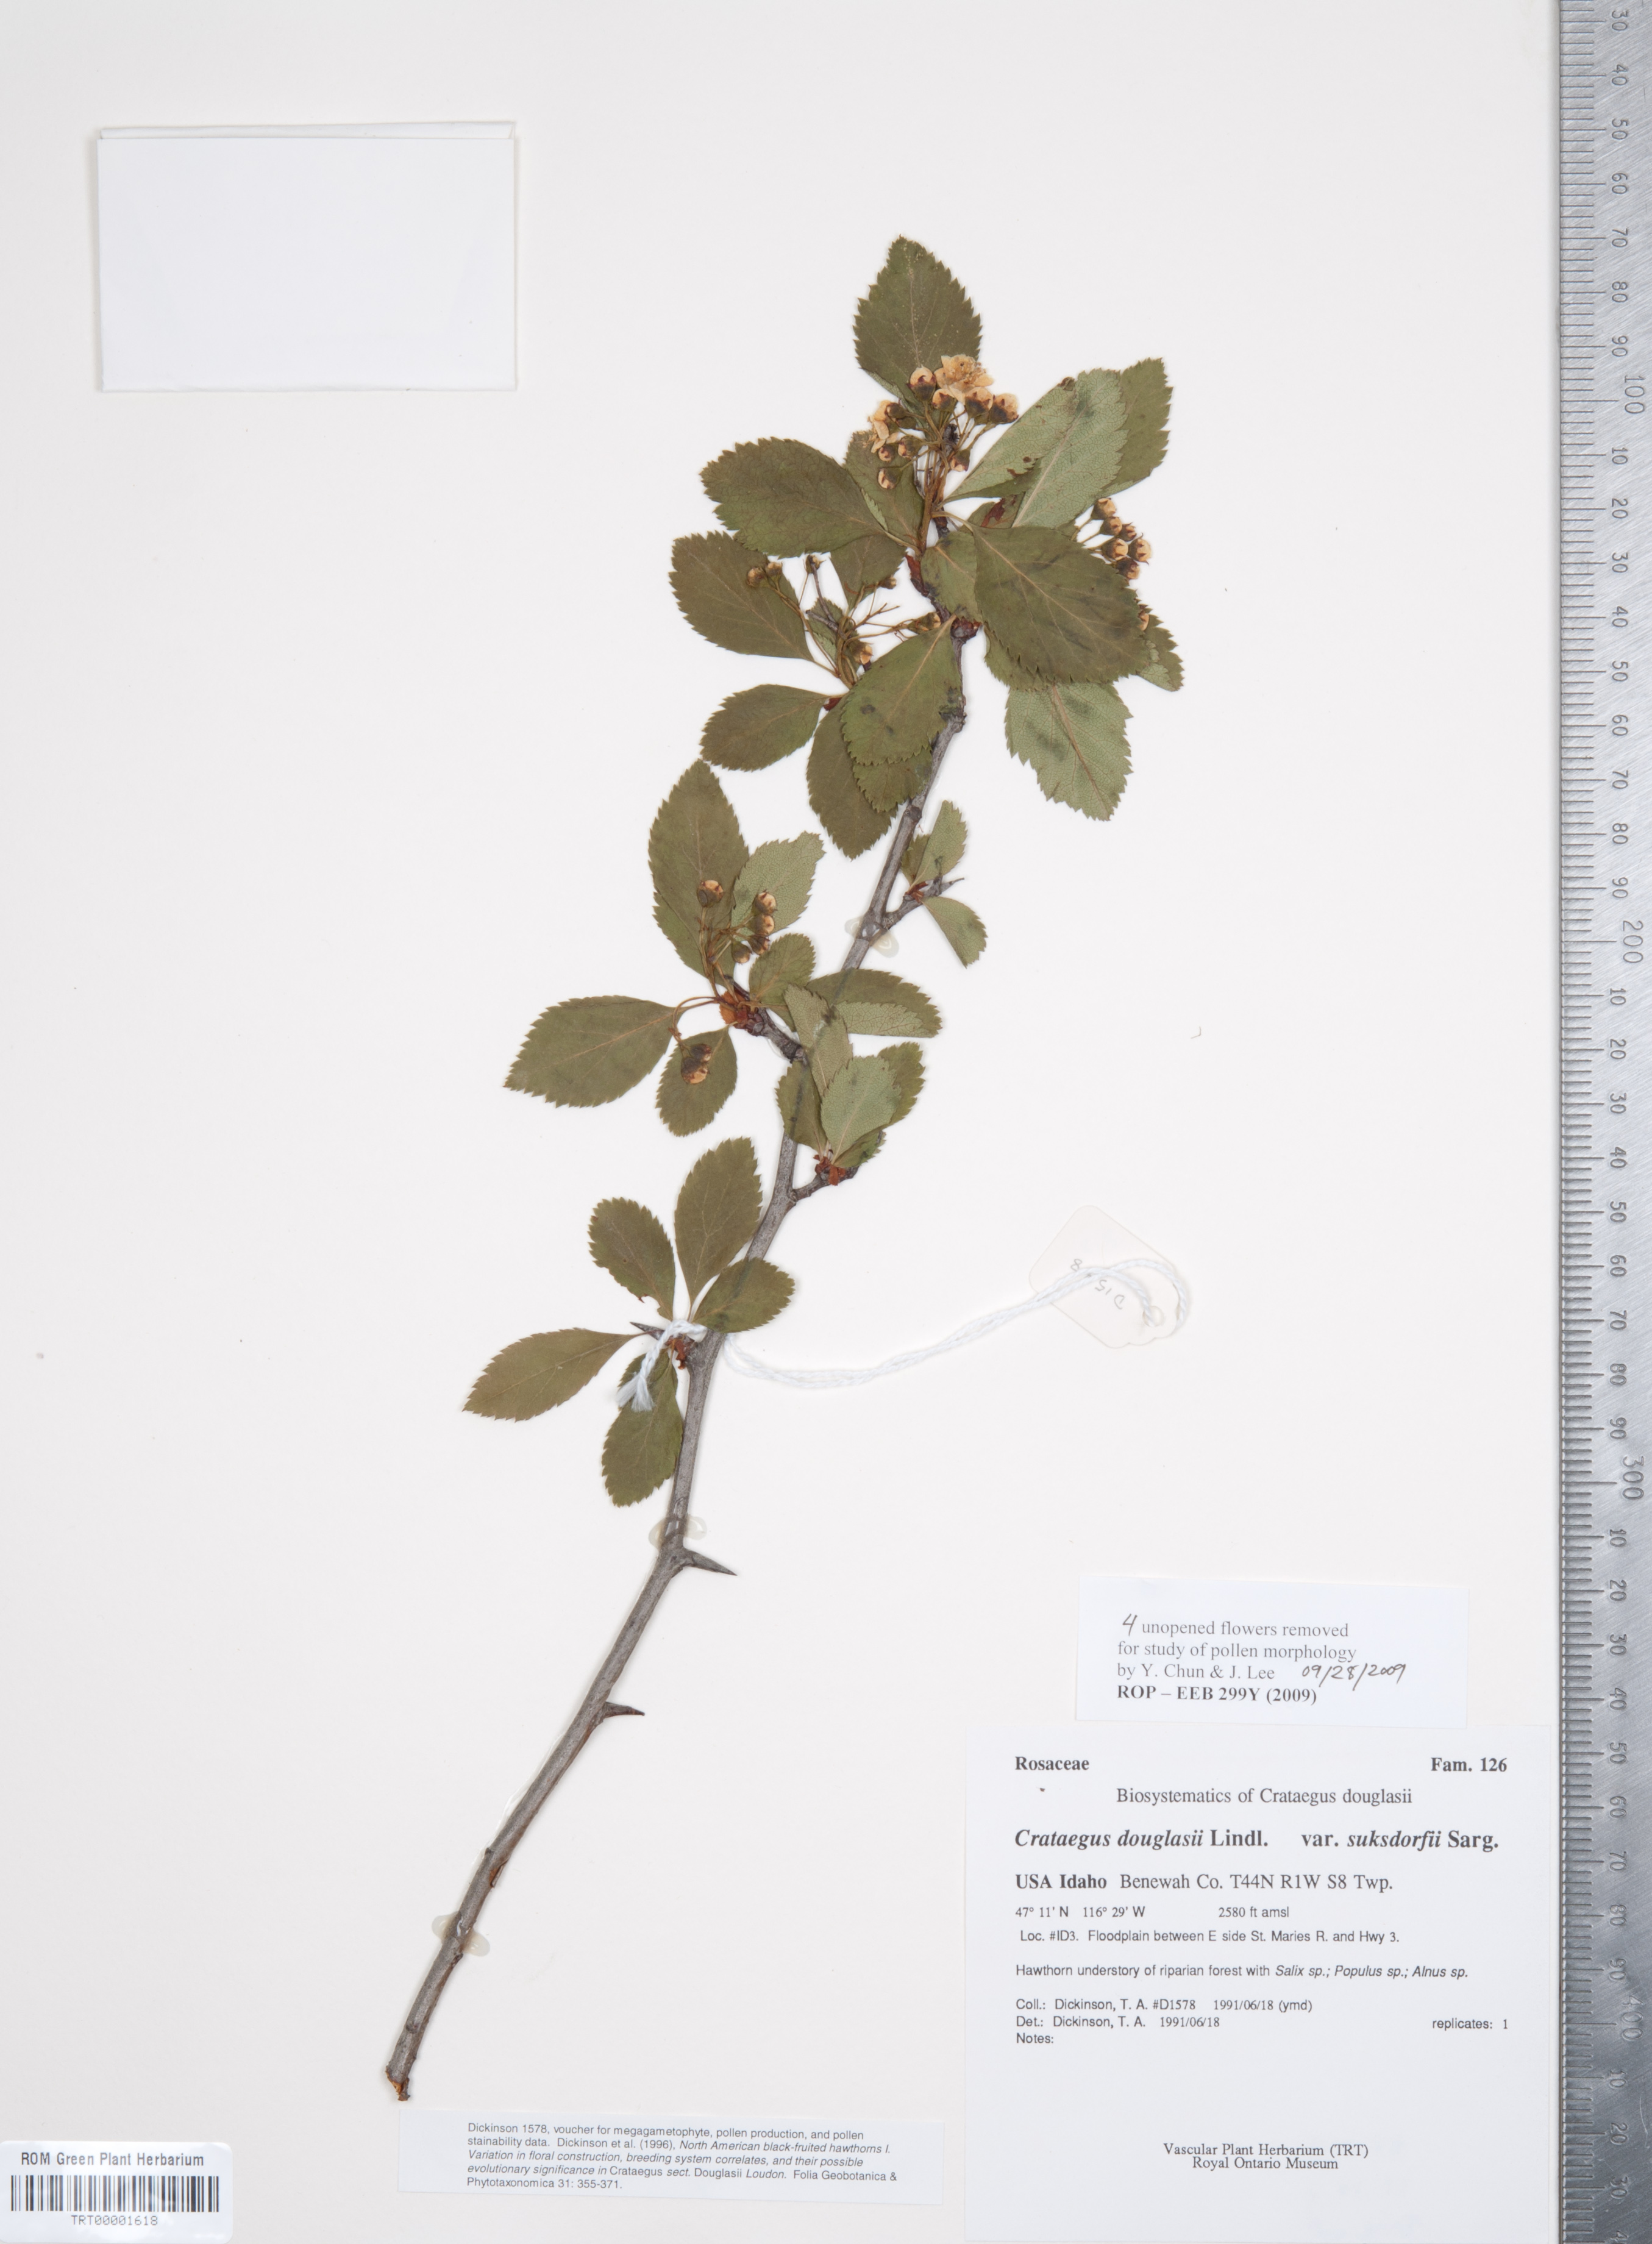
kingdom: Plantae
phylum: Tracheophyta
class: Magnoliopsida
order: Rosales
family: Rosaceae
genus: Crataegus
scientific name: Crataegus gaylussacia
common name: Huckleberry hawthorn
